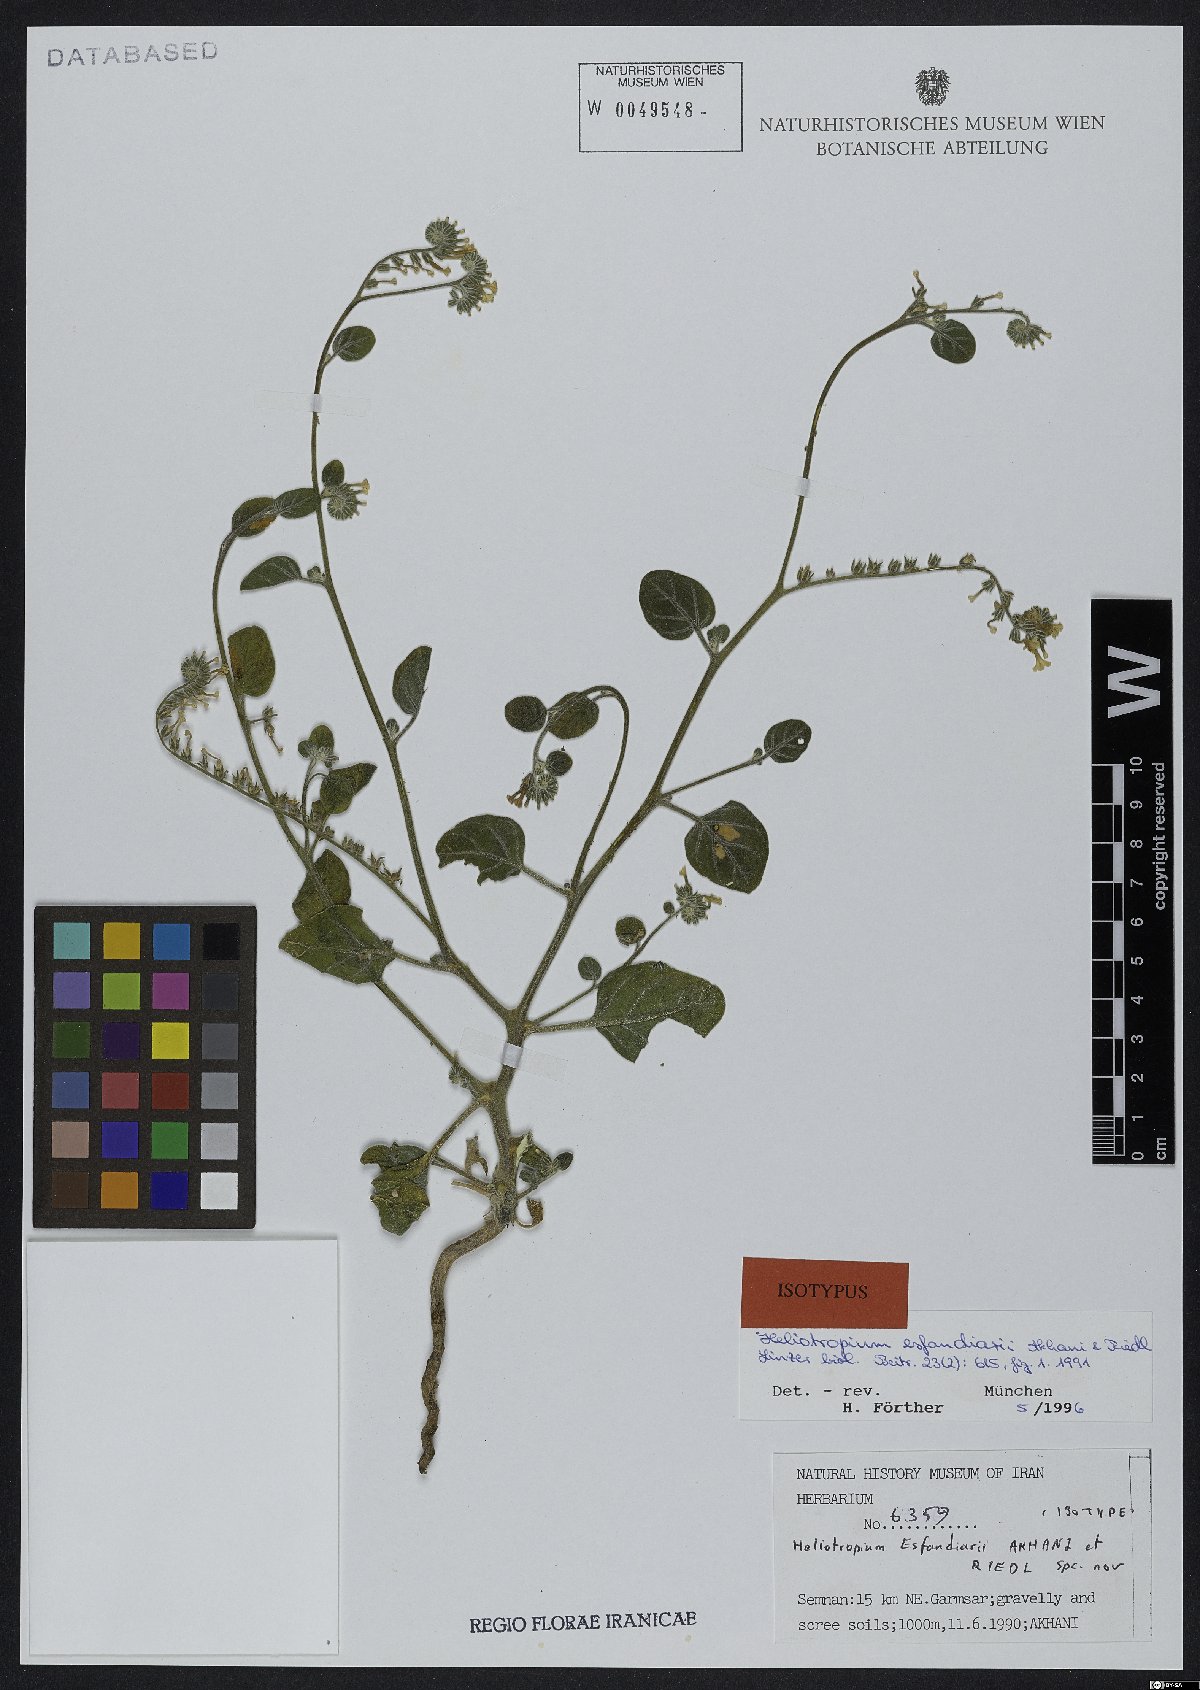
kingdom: Plantae
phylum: Tracheophyta
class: Magnoliopsida
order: Boraginales
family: Heliotropiaceae
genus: Heliotropium
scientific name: Heliotropium esfandiarii
